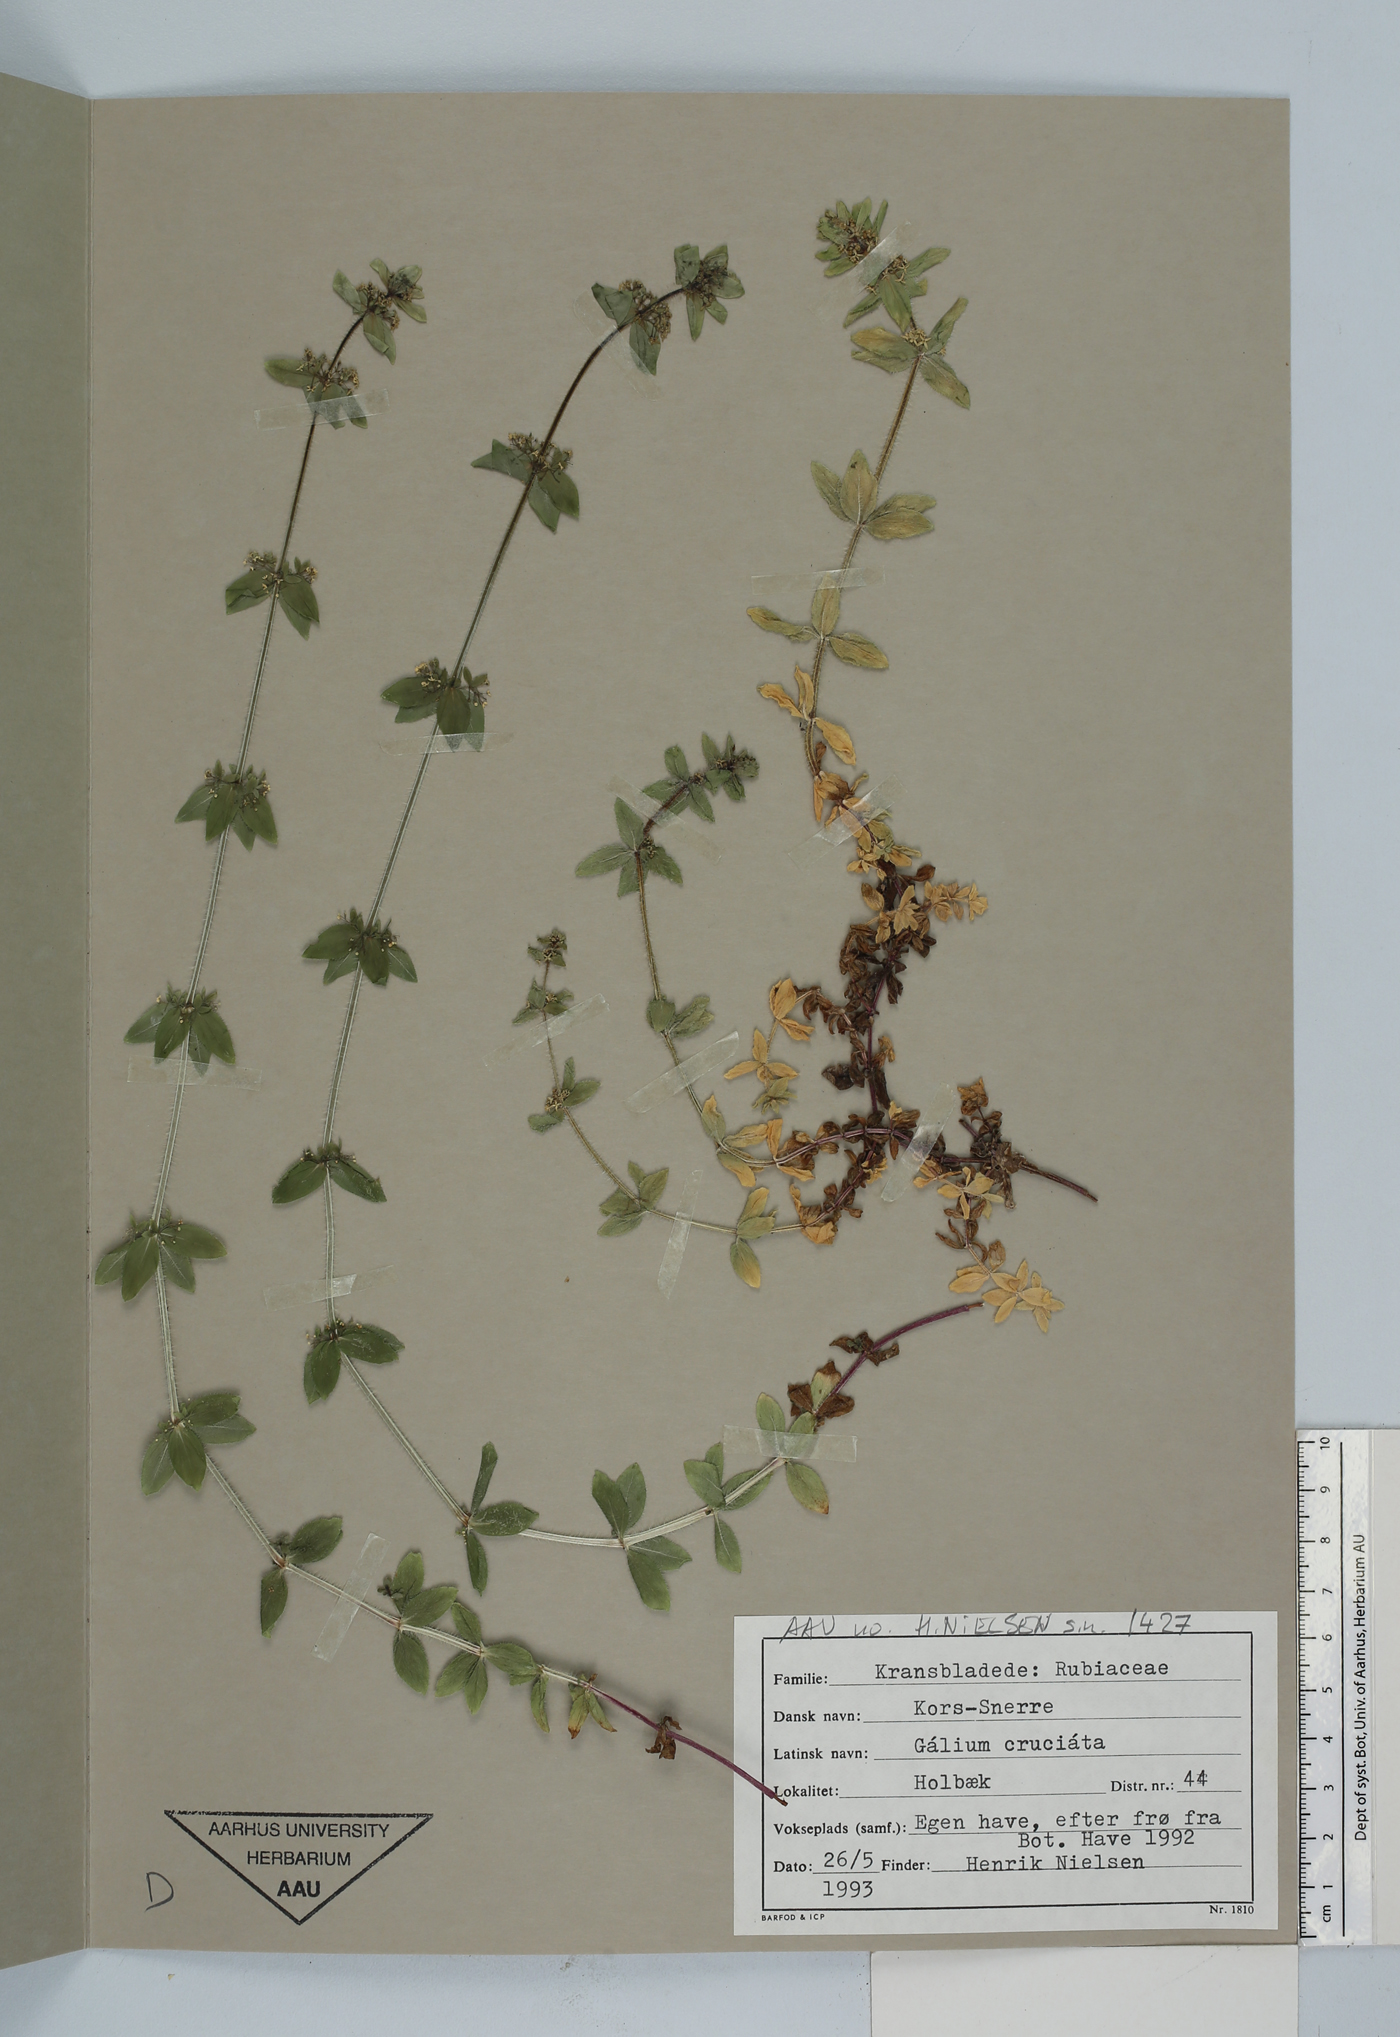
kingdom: Plantae
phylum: Tracheophyta
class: Magnoliopsida
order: Gentianales
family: Rubiaceae
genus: Cruciata
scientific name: Cruciata laevipes
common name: Crosswort
